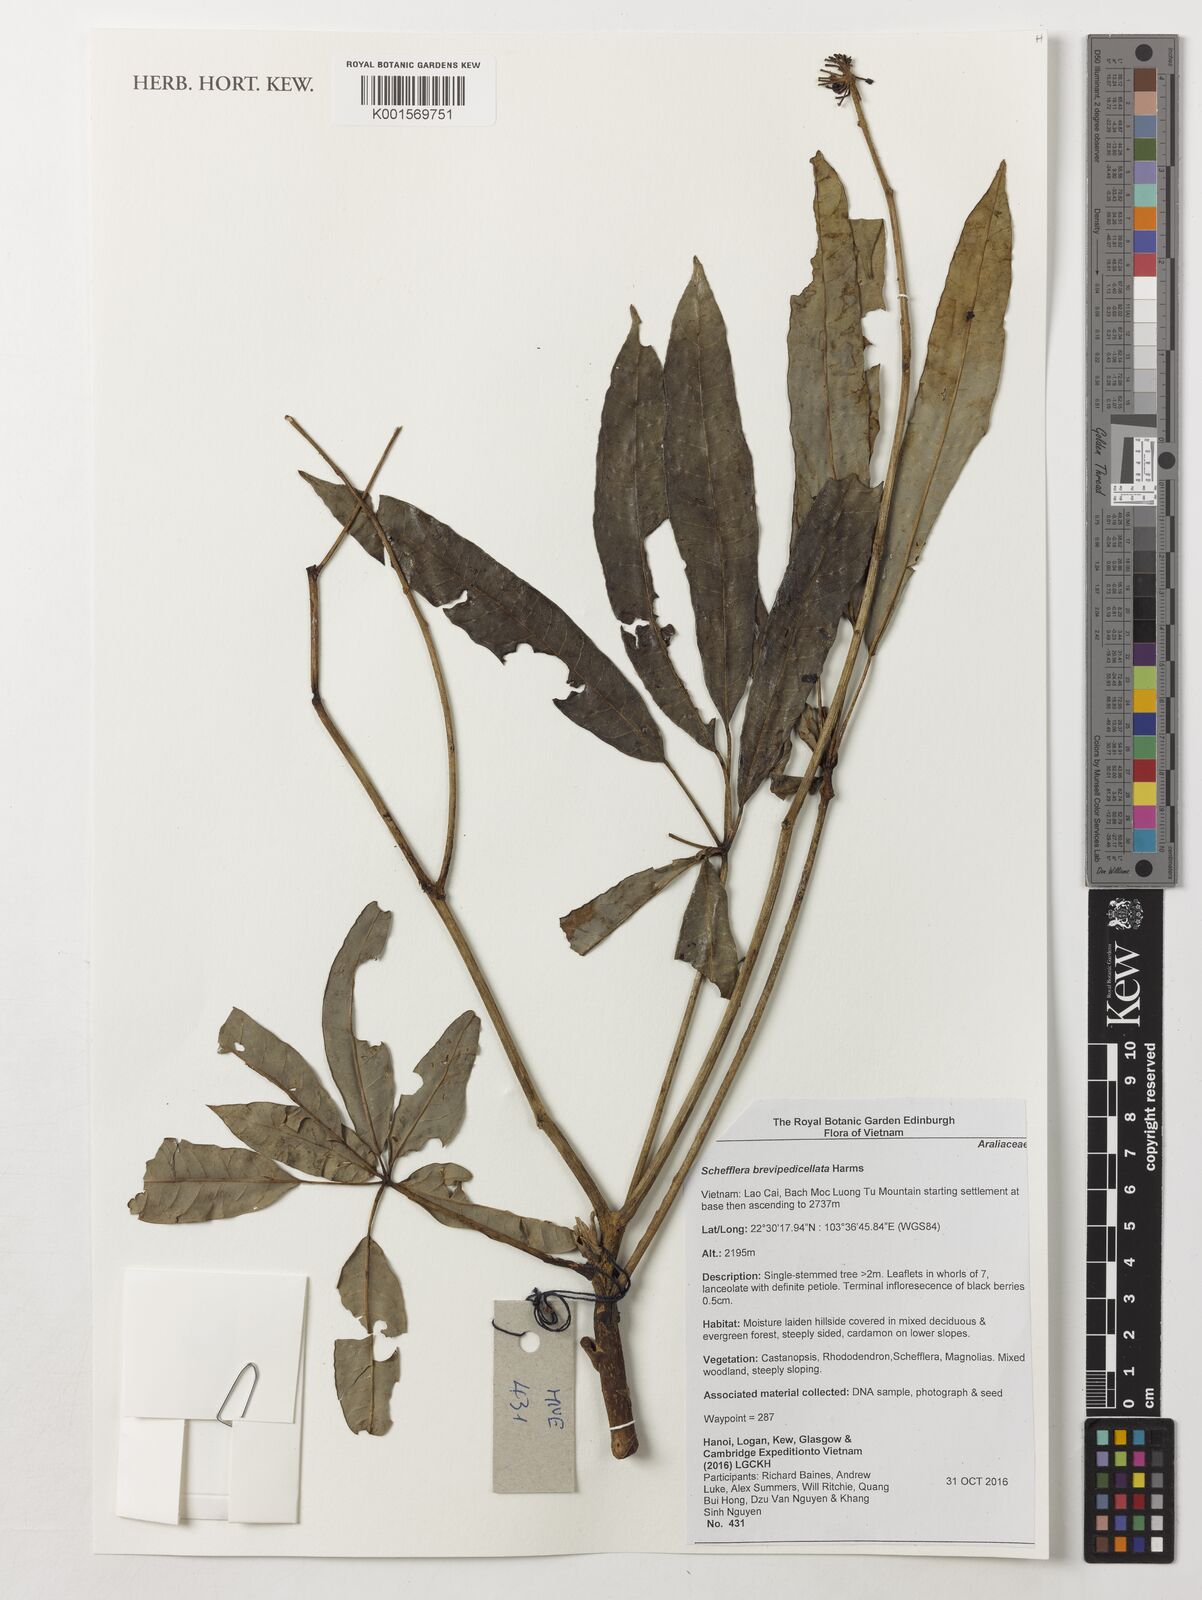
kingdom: Plantae
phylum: Tracheophyta
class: Magnoliopsida
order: Apiales
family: Araliaceae
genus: Heptapleurum
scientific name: Heptapleurum brevipedicellatum
